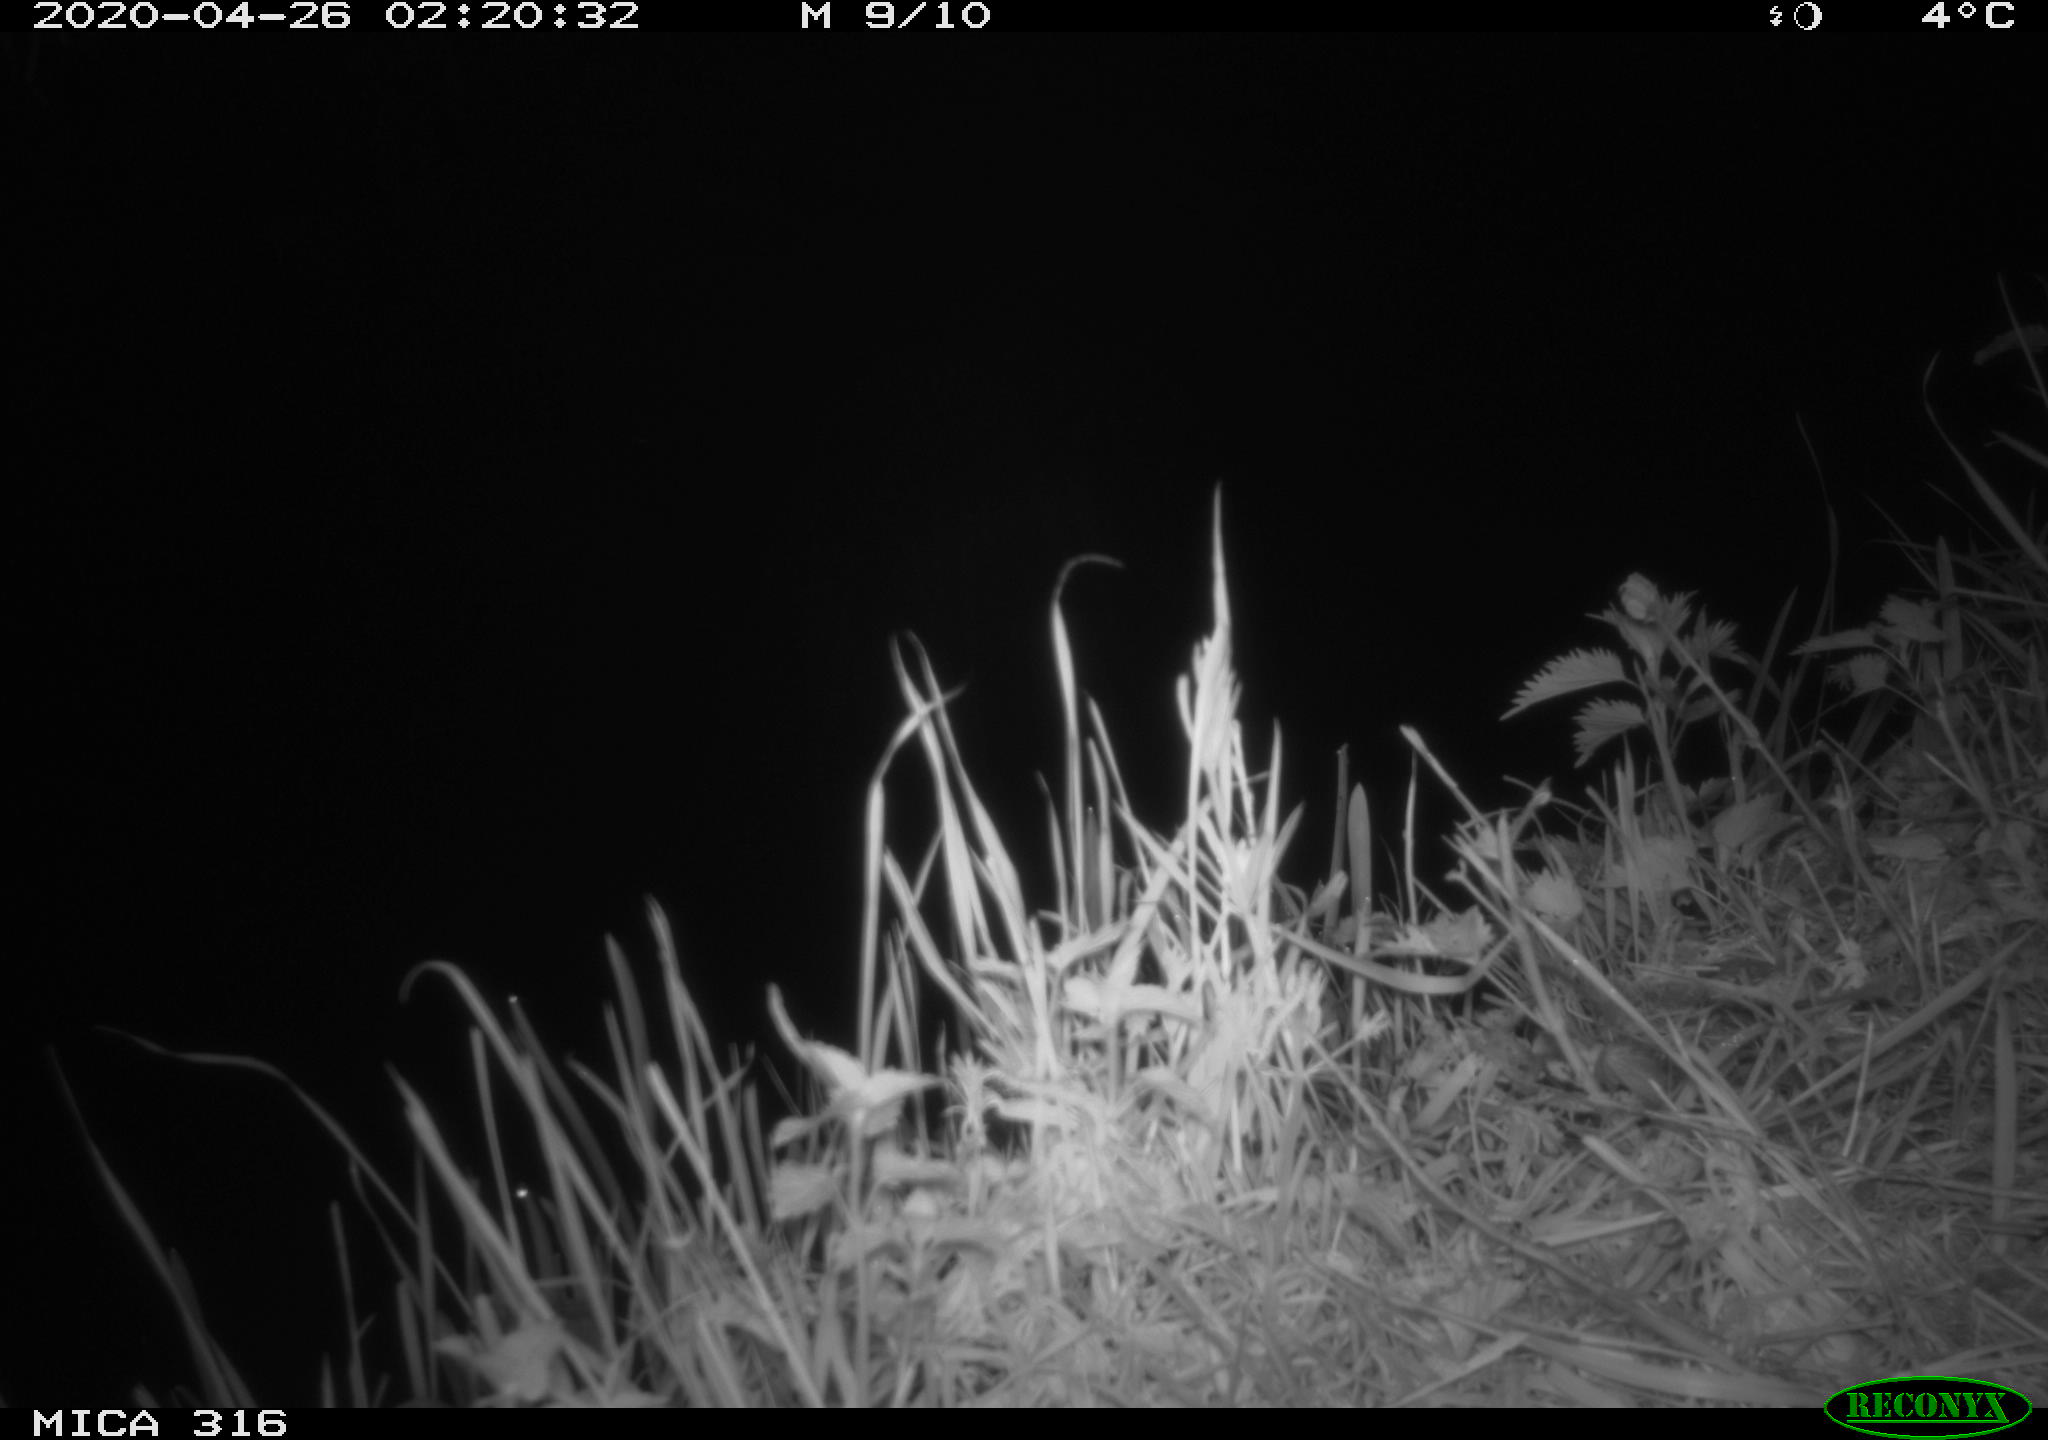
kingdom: Animalia
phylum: Chordata
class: Mammalia
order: Rodentia
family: Cricetidae
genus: Ondatra
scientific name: Ondatra zibethicus
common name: Muskrat
